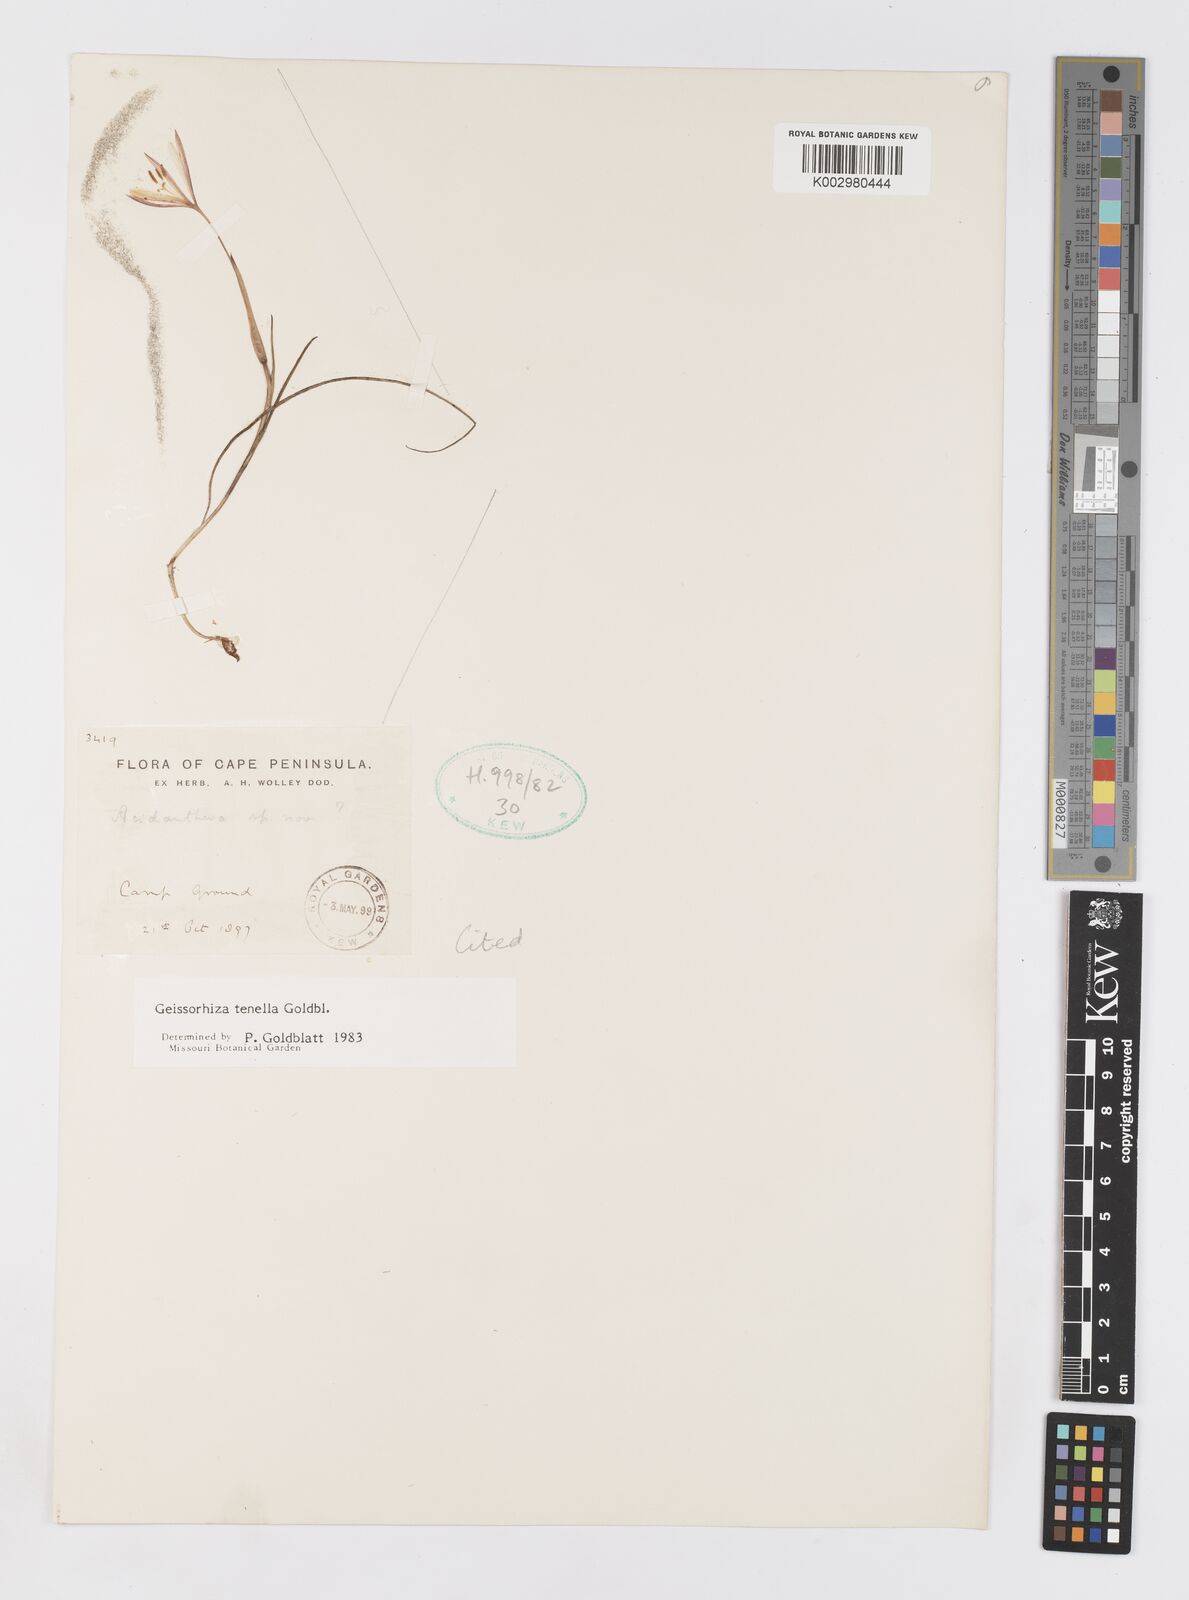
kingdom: Plantae
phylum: Tracheophyta
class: Liliopsida
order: Asparagales
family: Iridaceae
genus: Geissorhiza
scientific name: Geissorhiza tenella
